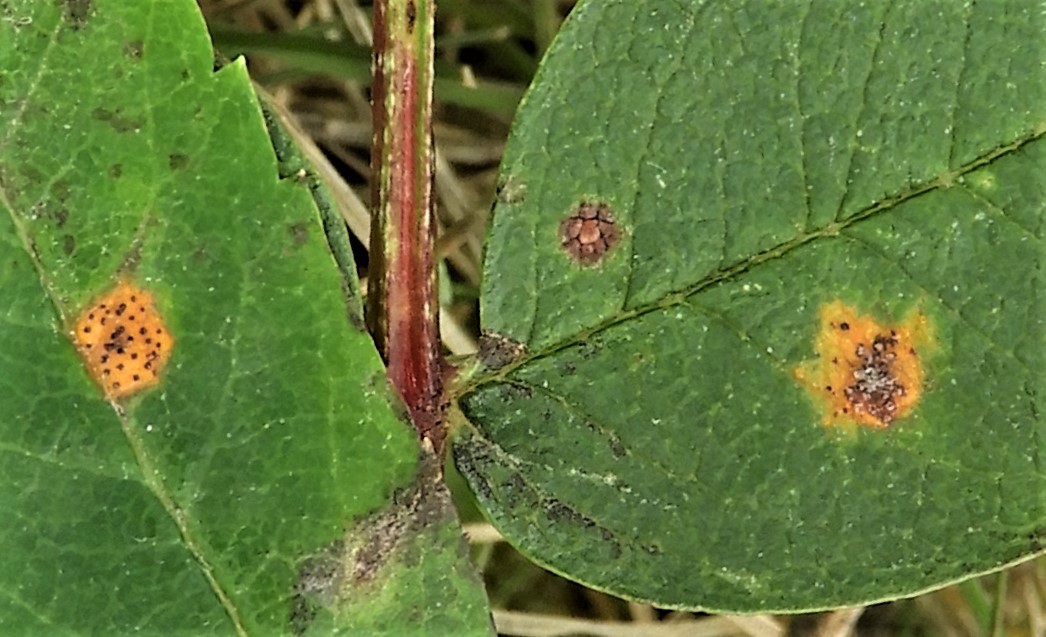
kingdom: Fungi
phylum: Basidiomycota
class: Pucciniomycetes
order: Pucciniales
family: Gymnosporangiaceae
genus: Gymnosporangium
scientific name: Gymnosporangium cornutum
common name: rønnehorn-bævrerust
